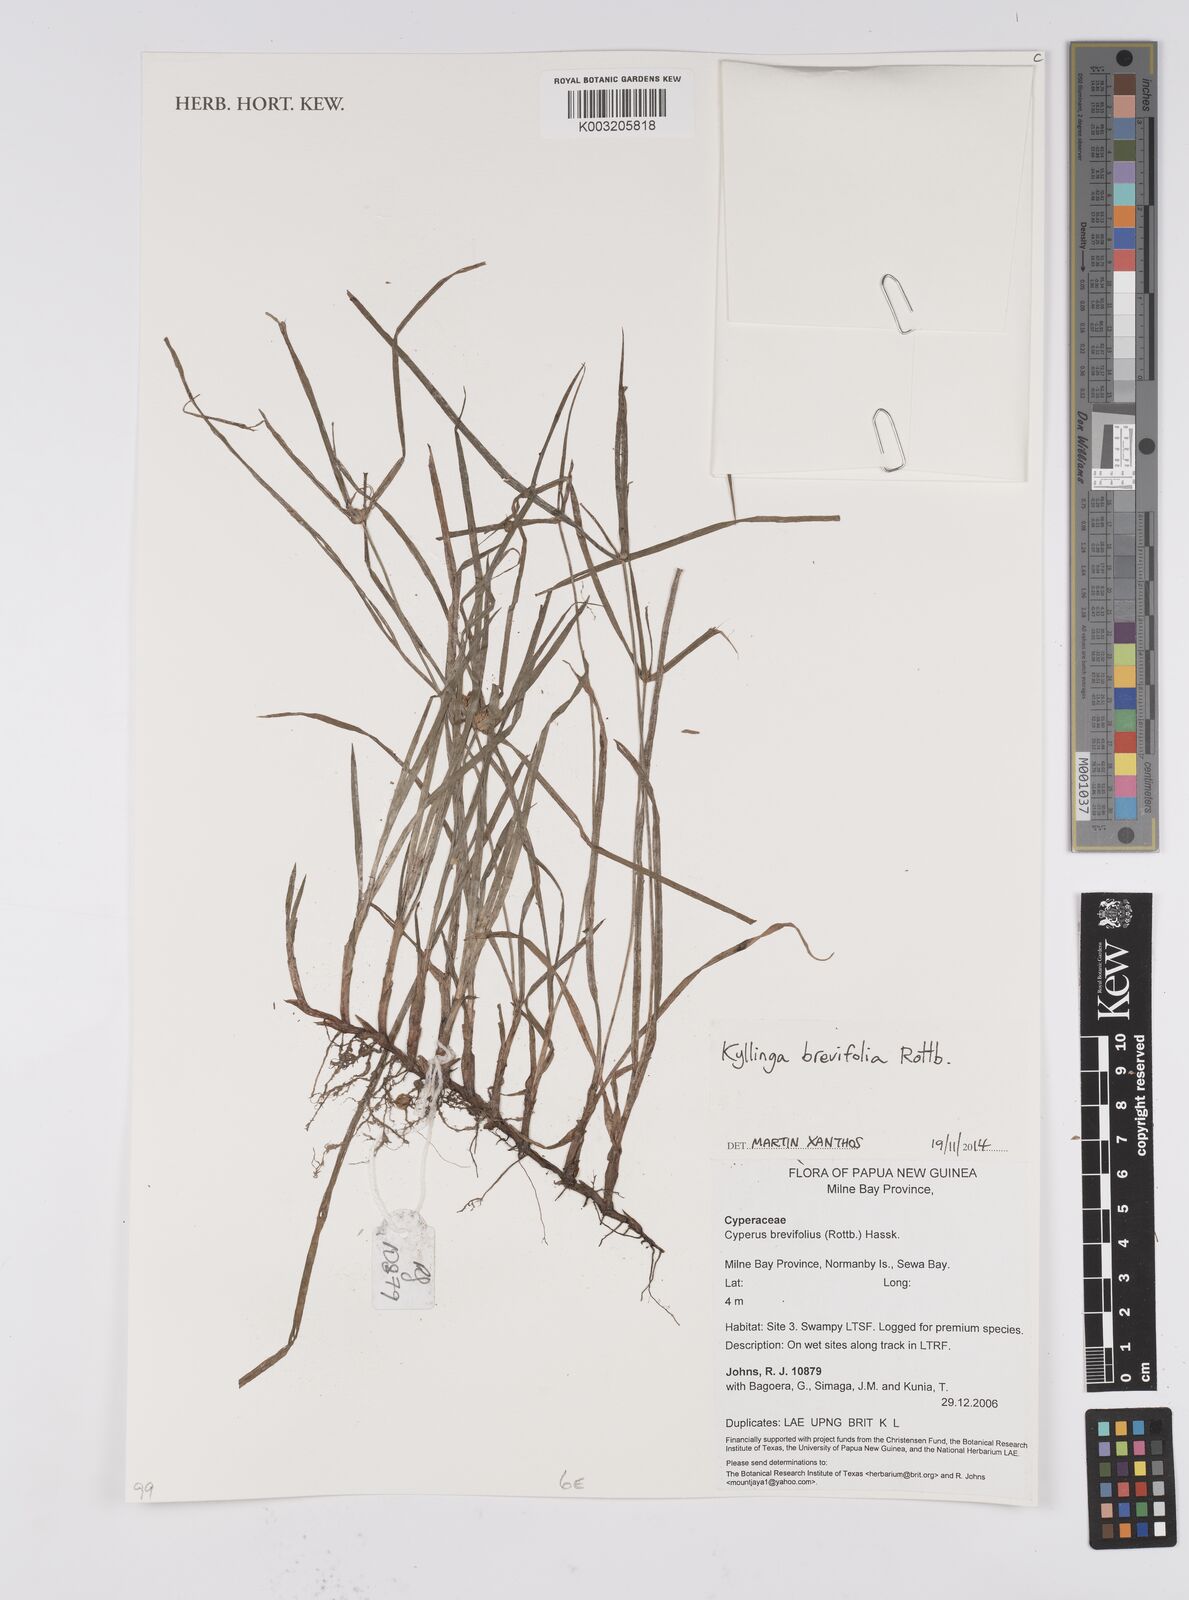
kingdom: Plantae
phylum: Tracheophyta
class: Liliopsida
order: Poales
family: Cyperaceae
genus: Cyperus
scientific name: Cyperus brevifolius
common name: Globe kyllinga
